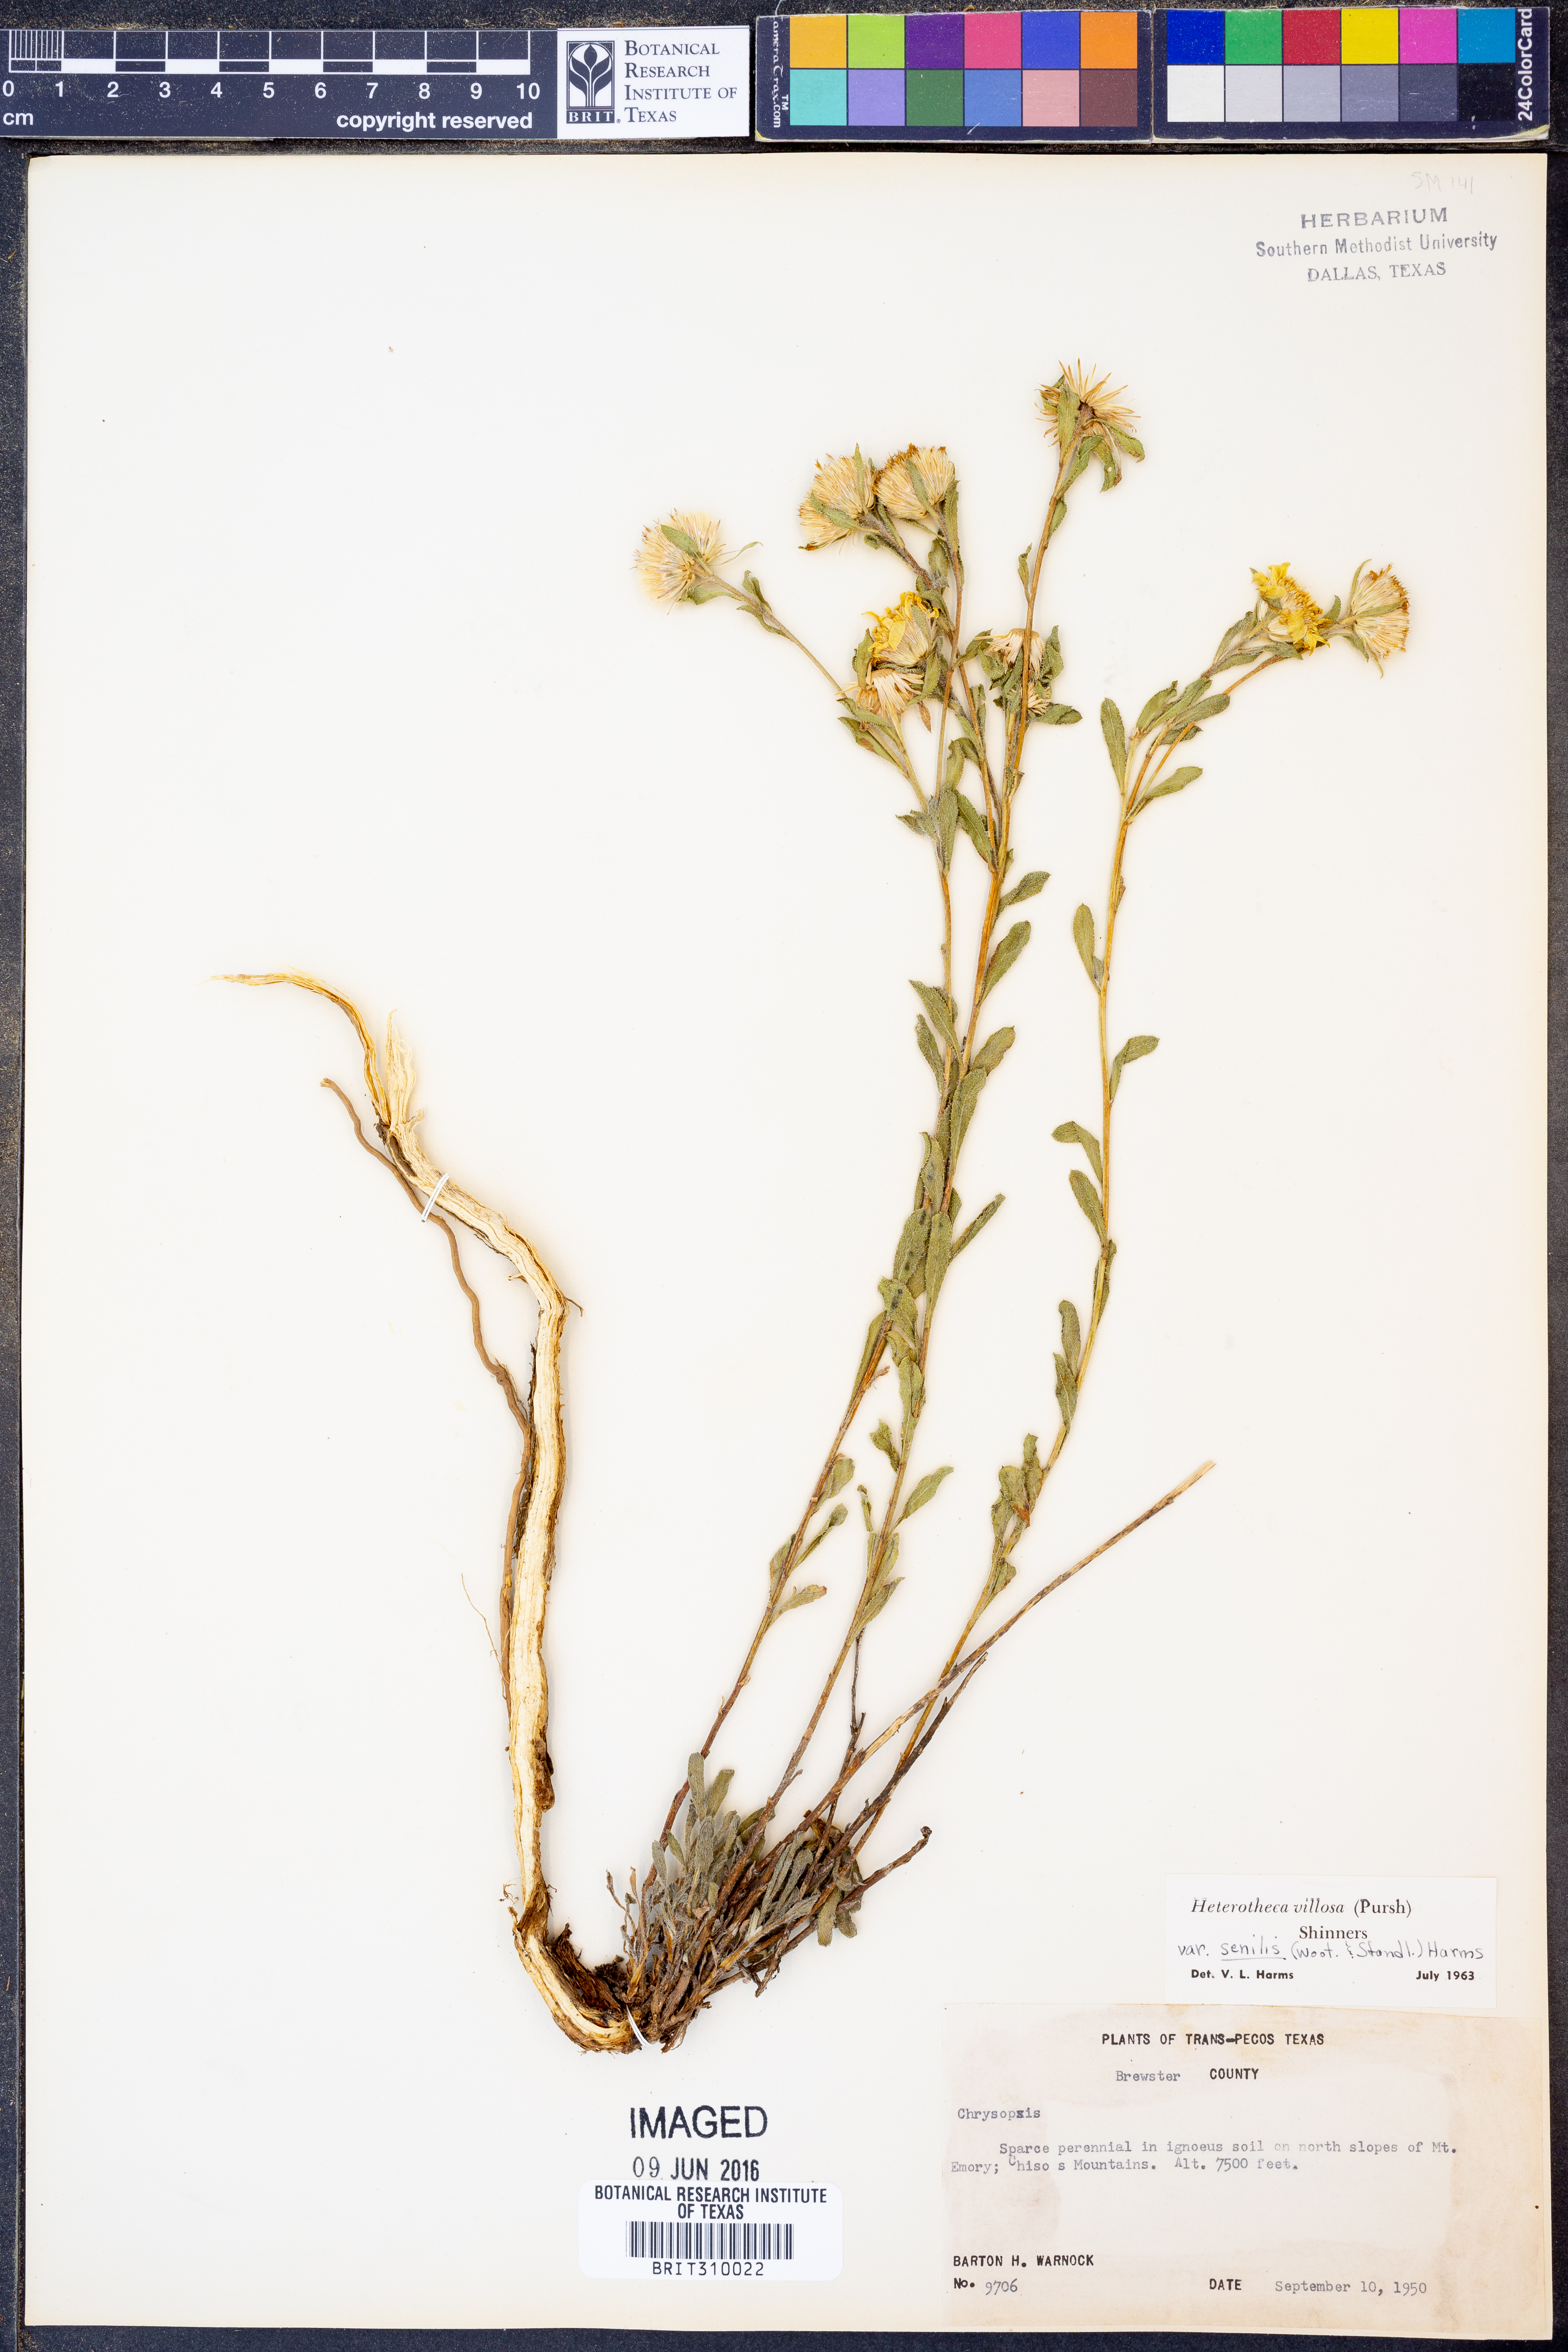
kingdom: Plantae
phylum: Tracheophyta
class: Magnoliopsida
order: Asterales
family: Asteraceae
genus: Heterotheca
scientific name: Heterotheca villosa
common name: Hairy false goldenaster
